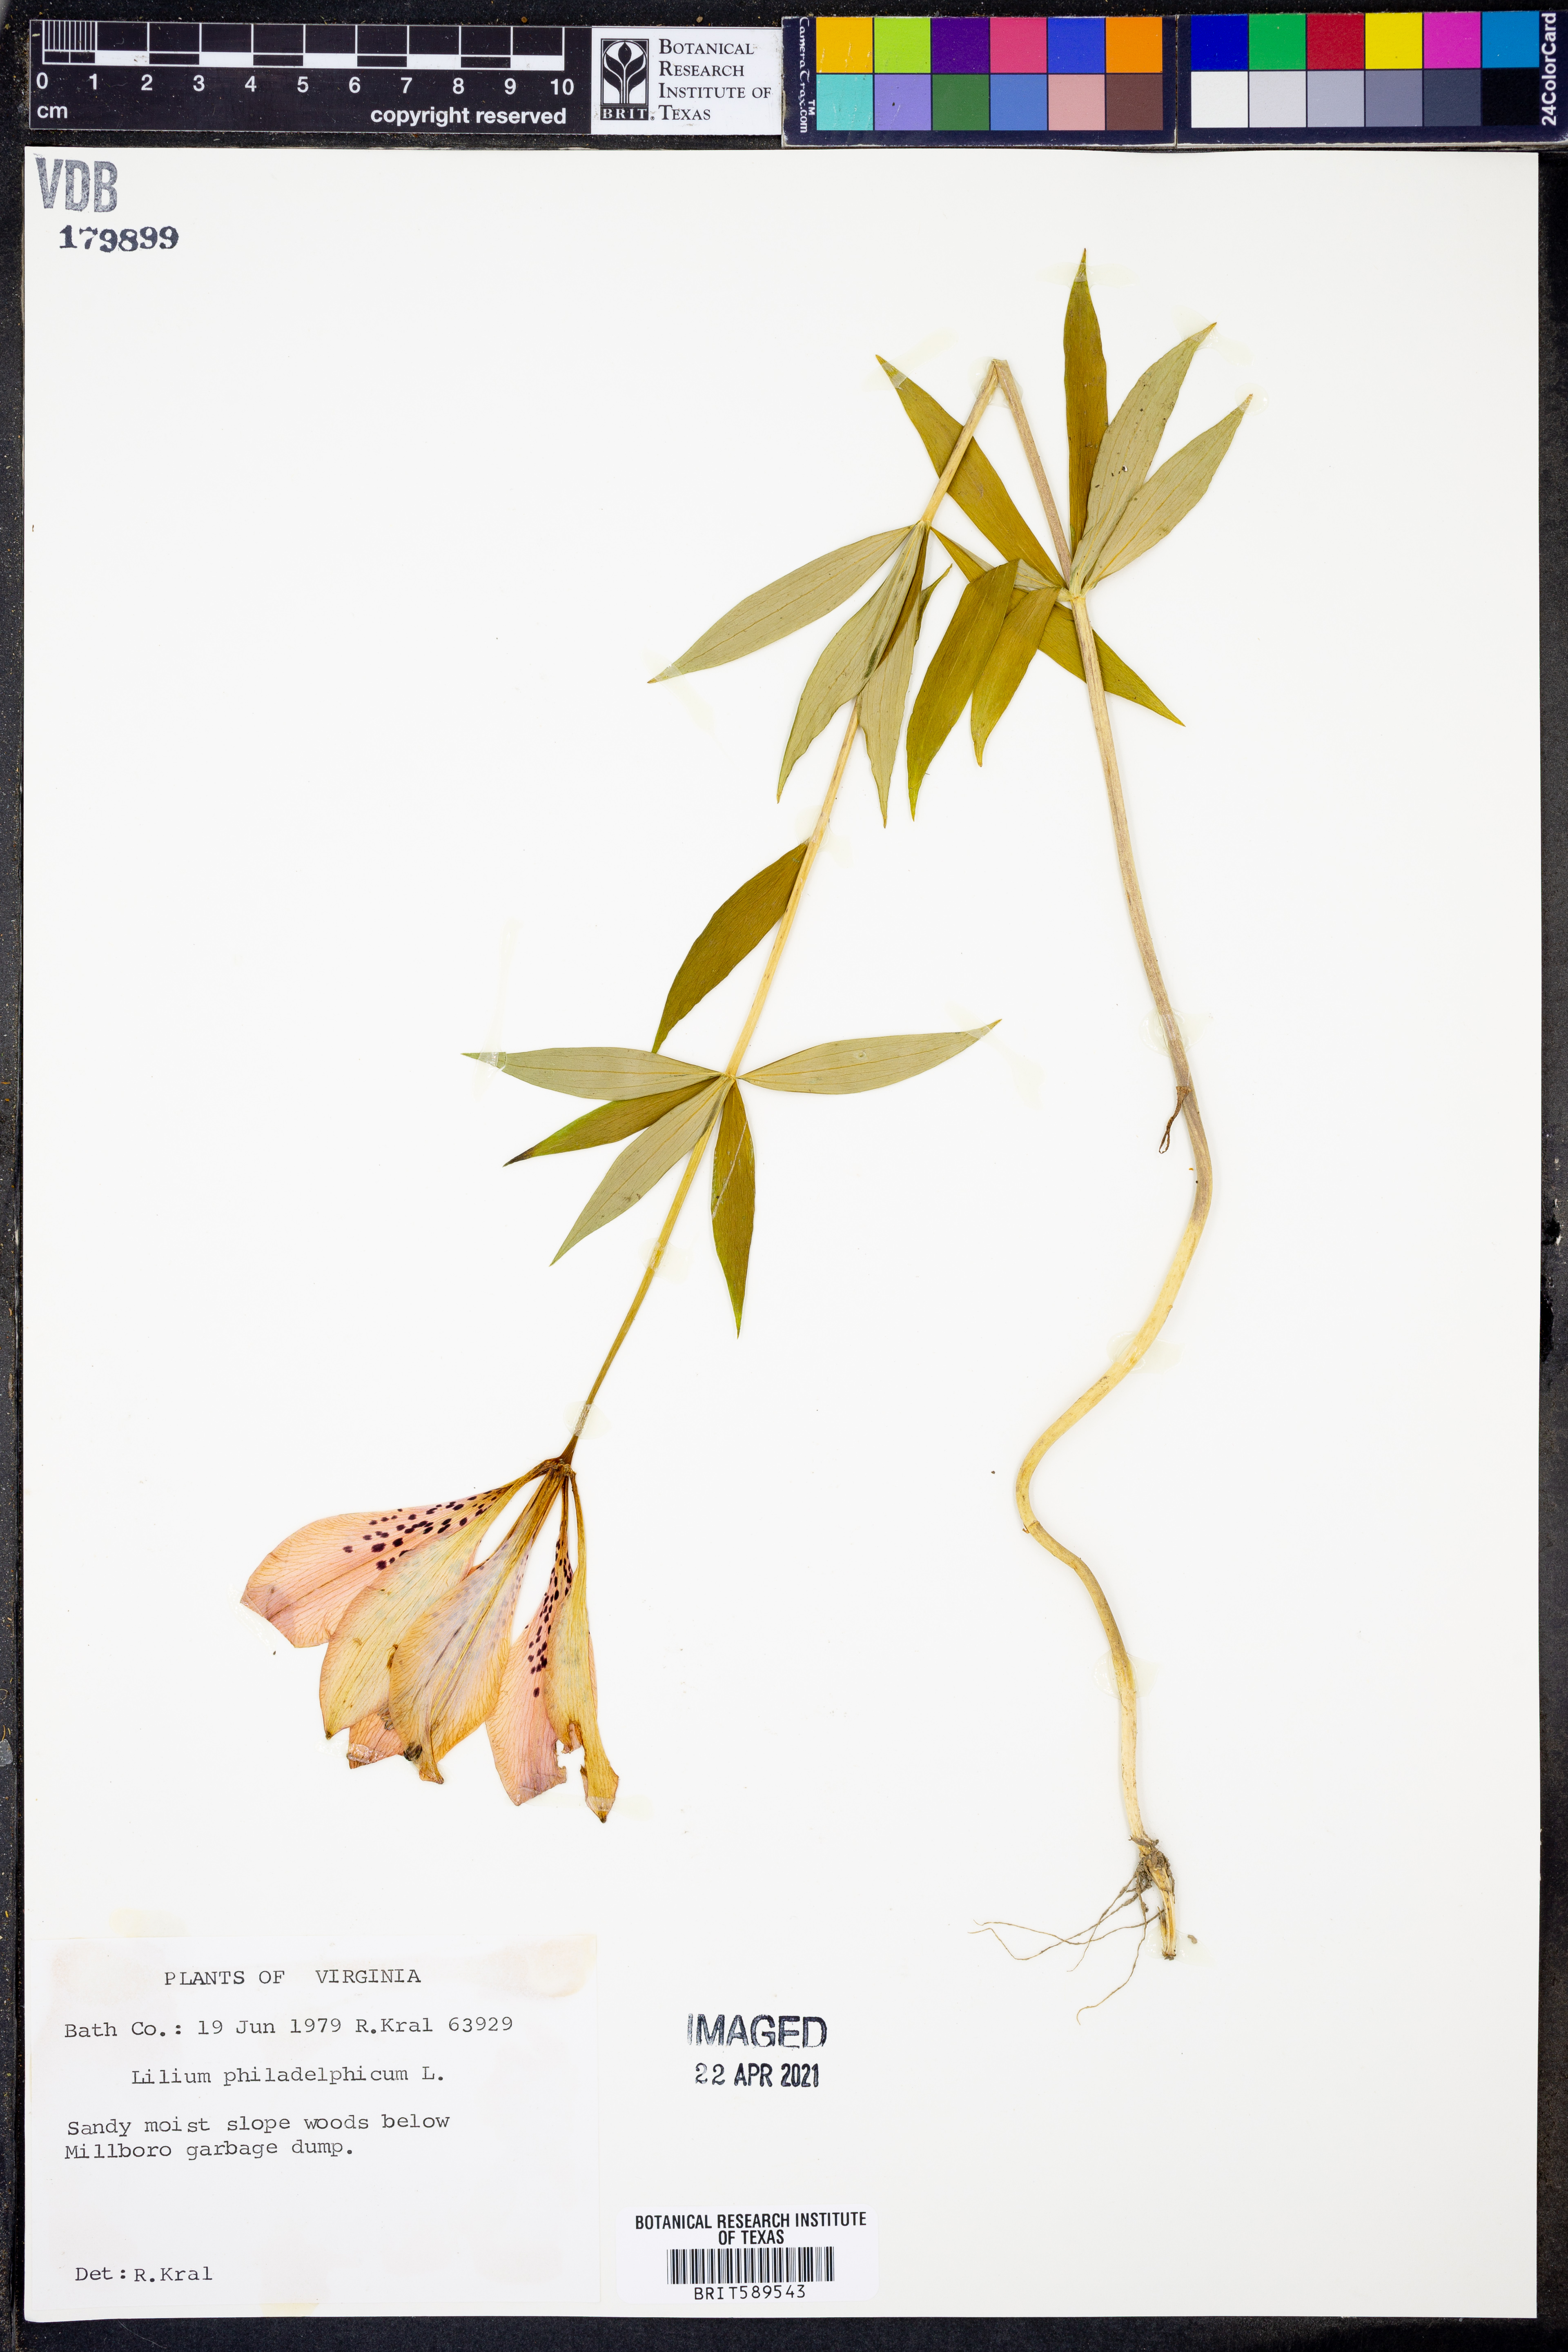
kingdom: Plantae
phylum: Tracheophyta
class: Liliopsida
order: Liliales
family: Liliaceae
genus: Lilium
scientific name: Lilium philadelphicum
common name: Red lily
